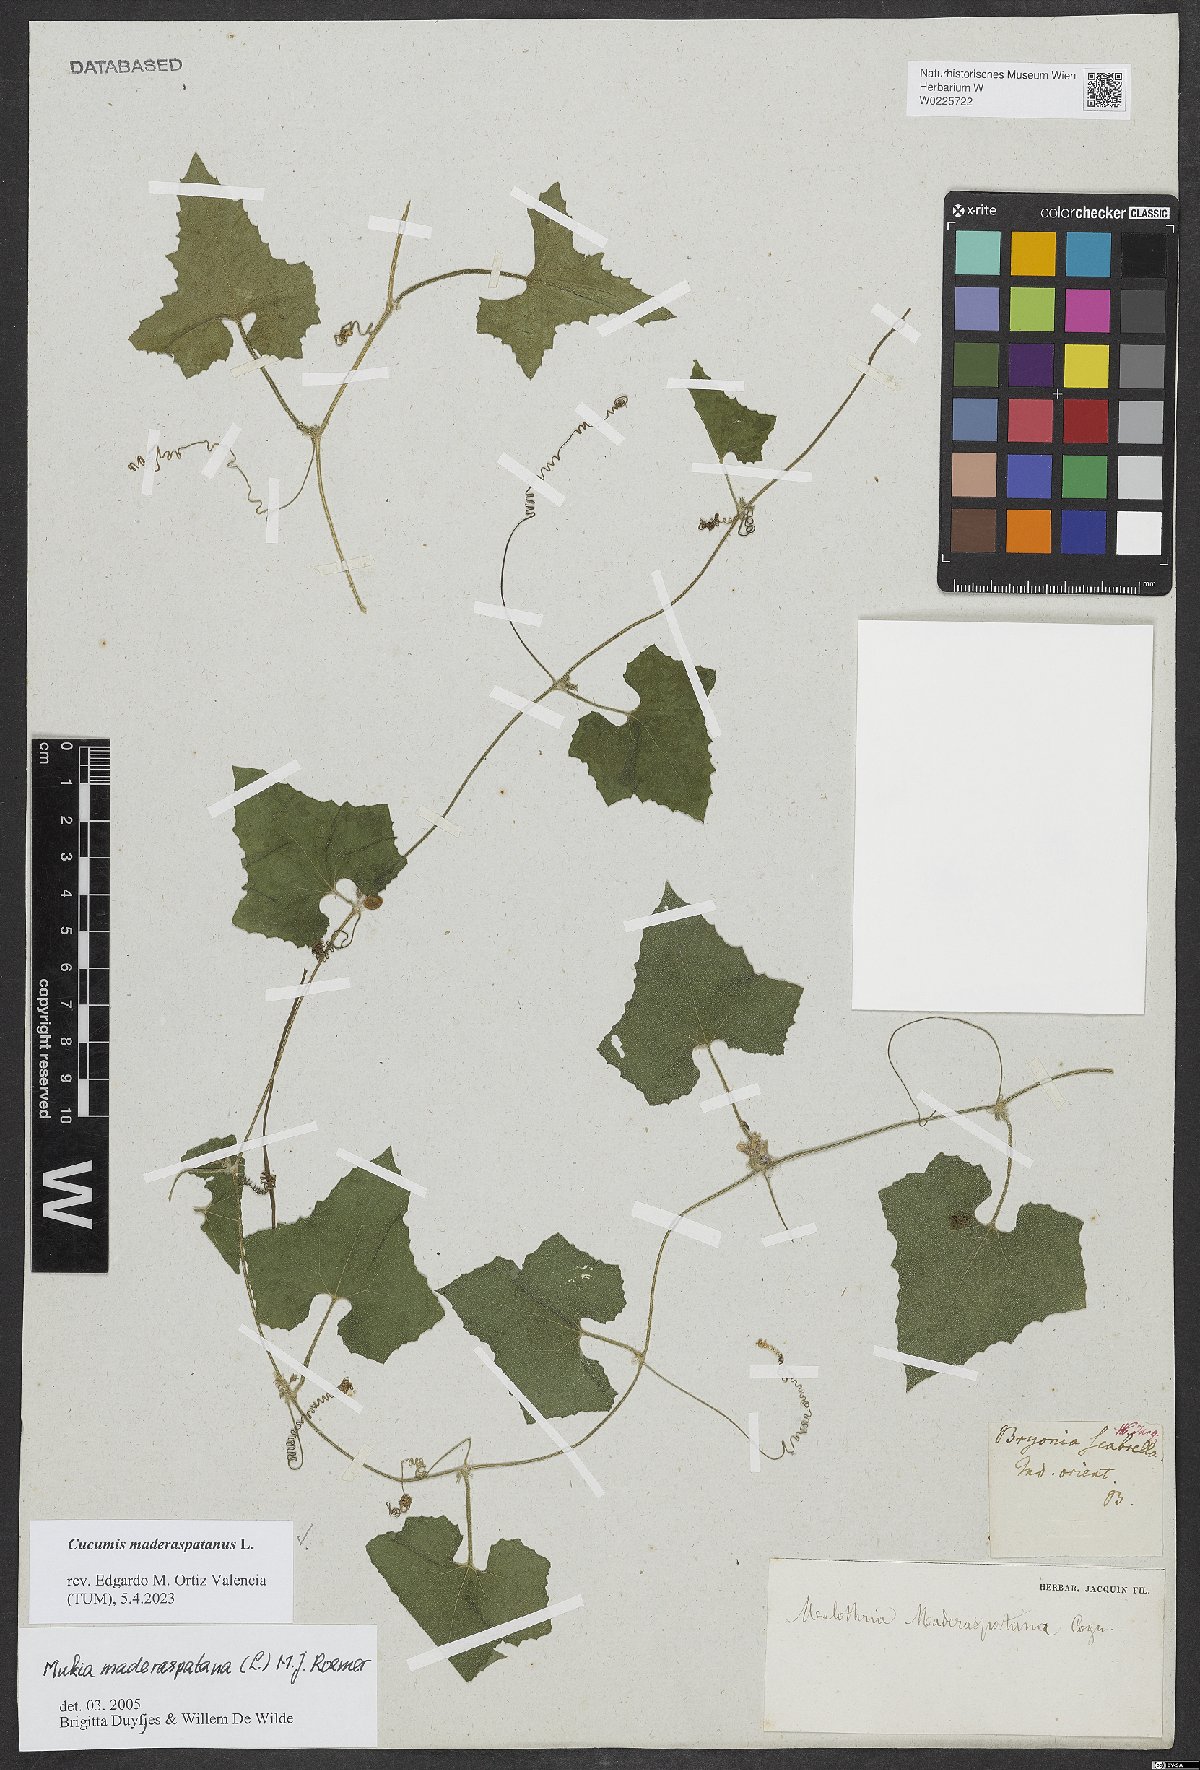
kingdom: Plantae
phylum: Tracheophyta
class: Magnoliopsida
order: Cucurbitales
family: Cucurbitaceae
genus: Cucumis
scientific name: Cucumis maderaspatanus
